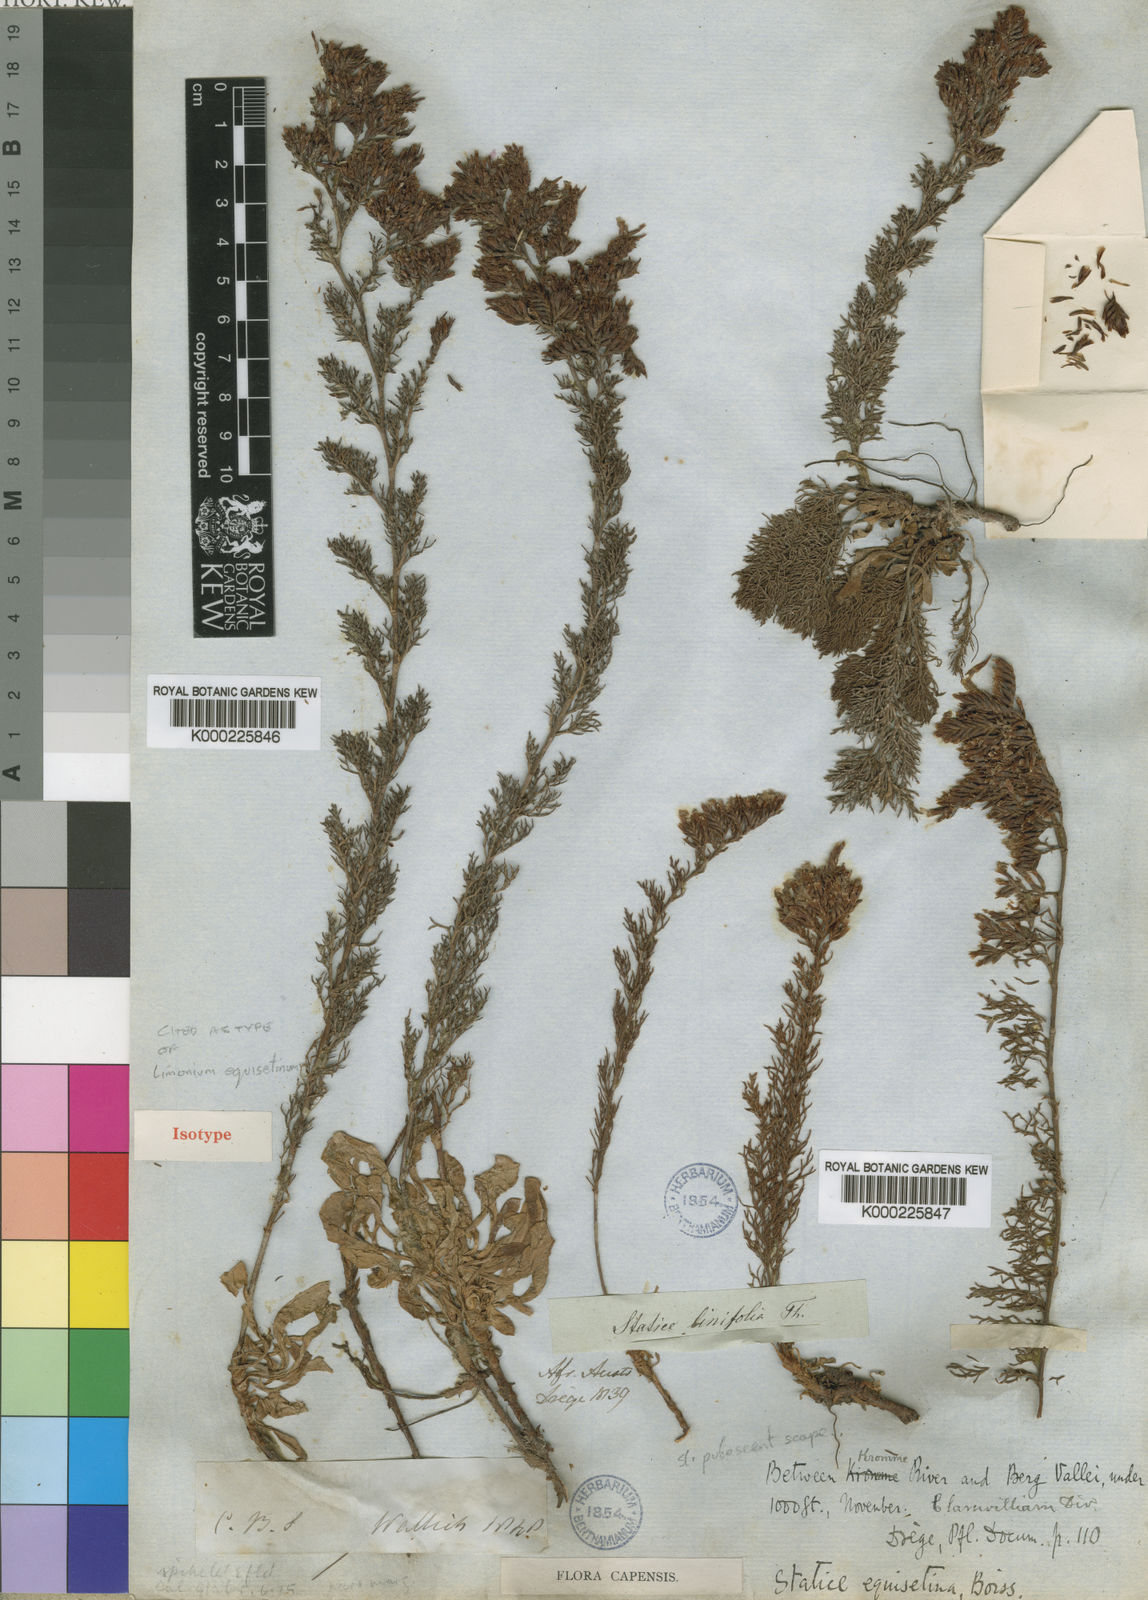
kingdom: Plantae
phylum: Tracheophyta
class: Magnoliopsida
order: Caryophyllales
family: Plumbaginaceae
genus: Limonium
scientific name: Limonium equisetinum
